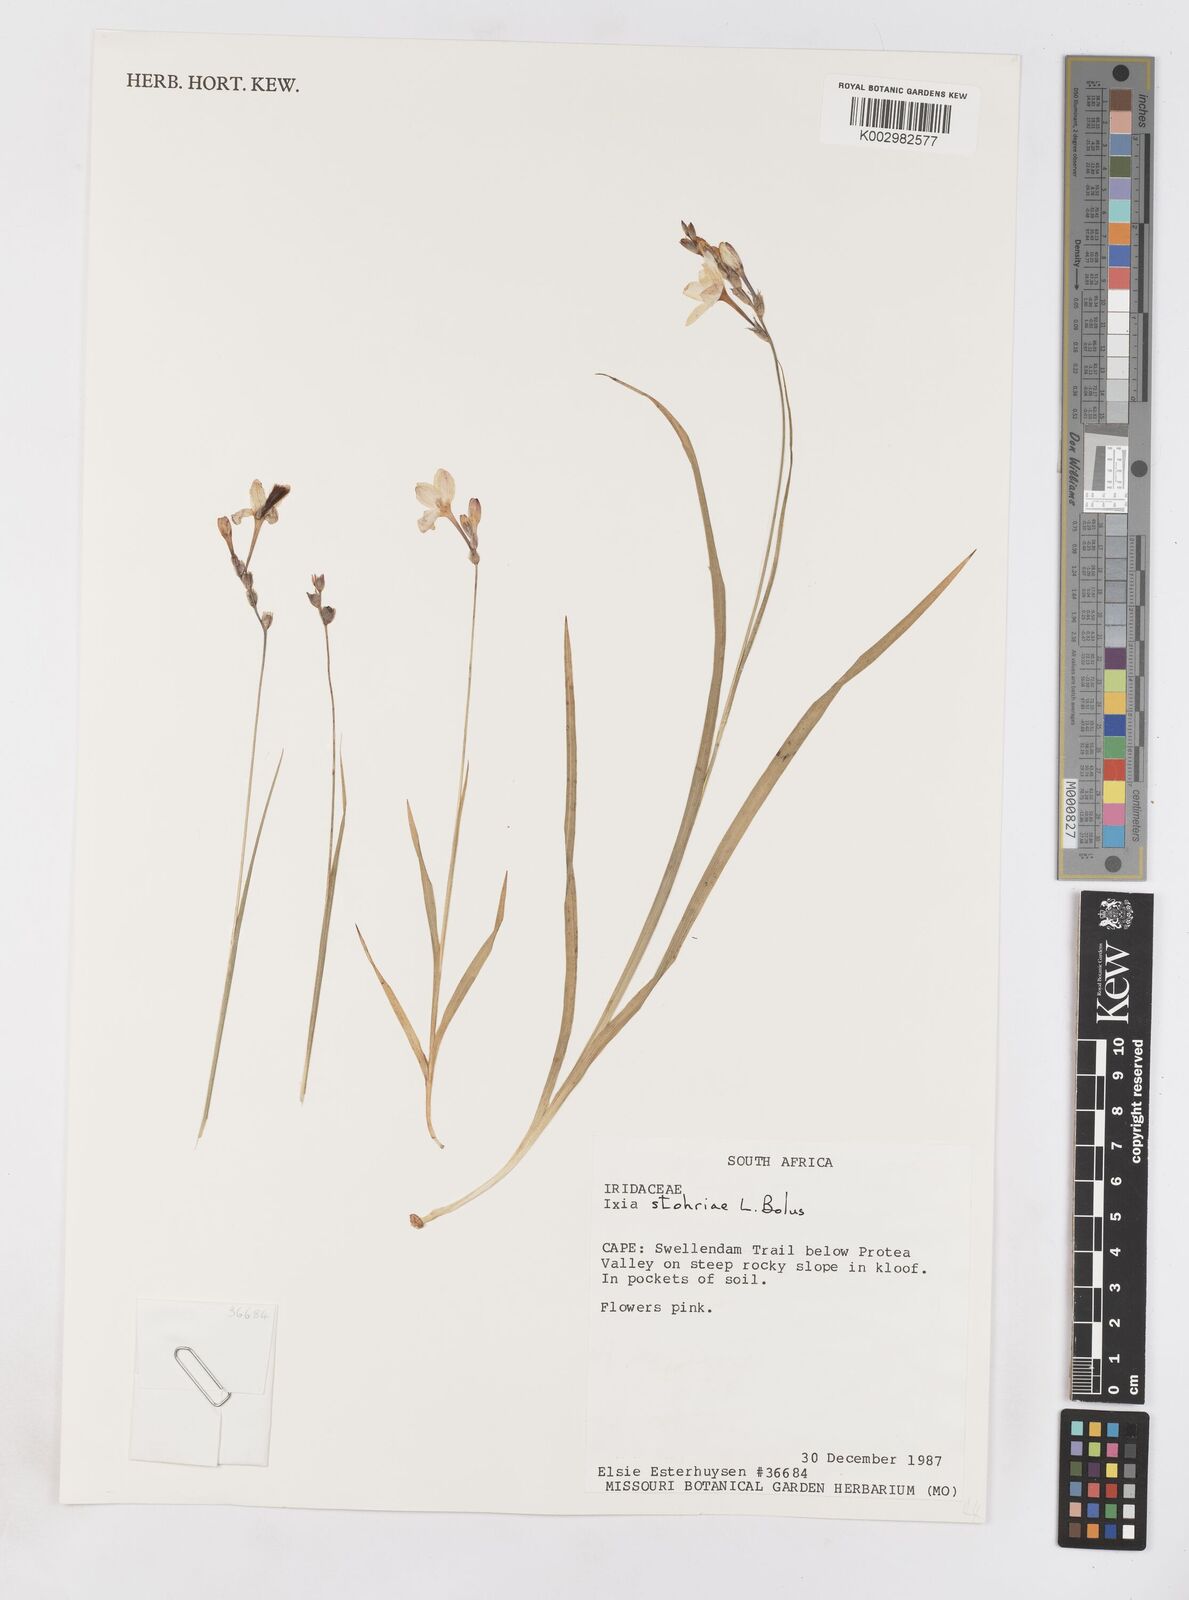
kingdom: Plantae
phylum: Tracheophyta
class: Liliopsida
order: Asparagales
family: Iridaceae
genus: Ixia
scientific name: Ixia stohriae
